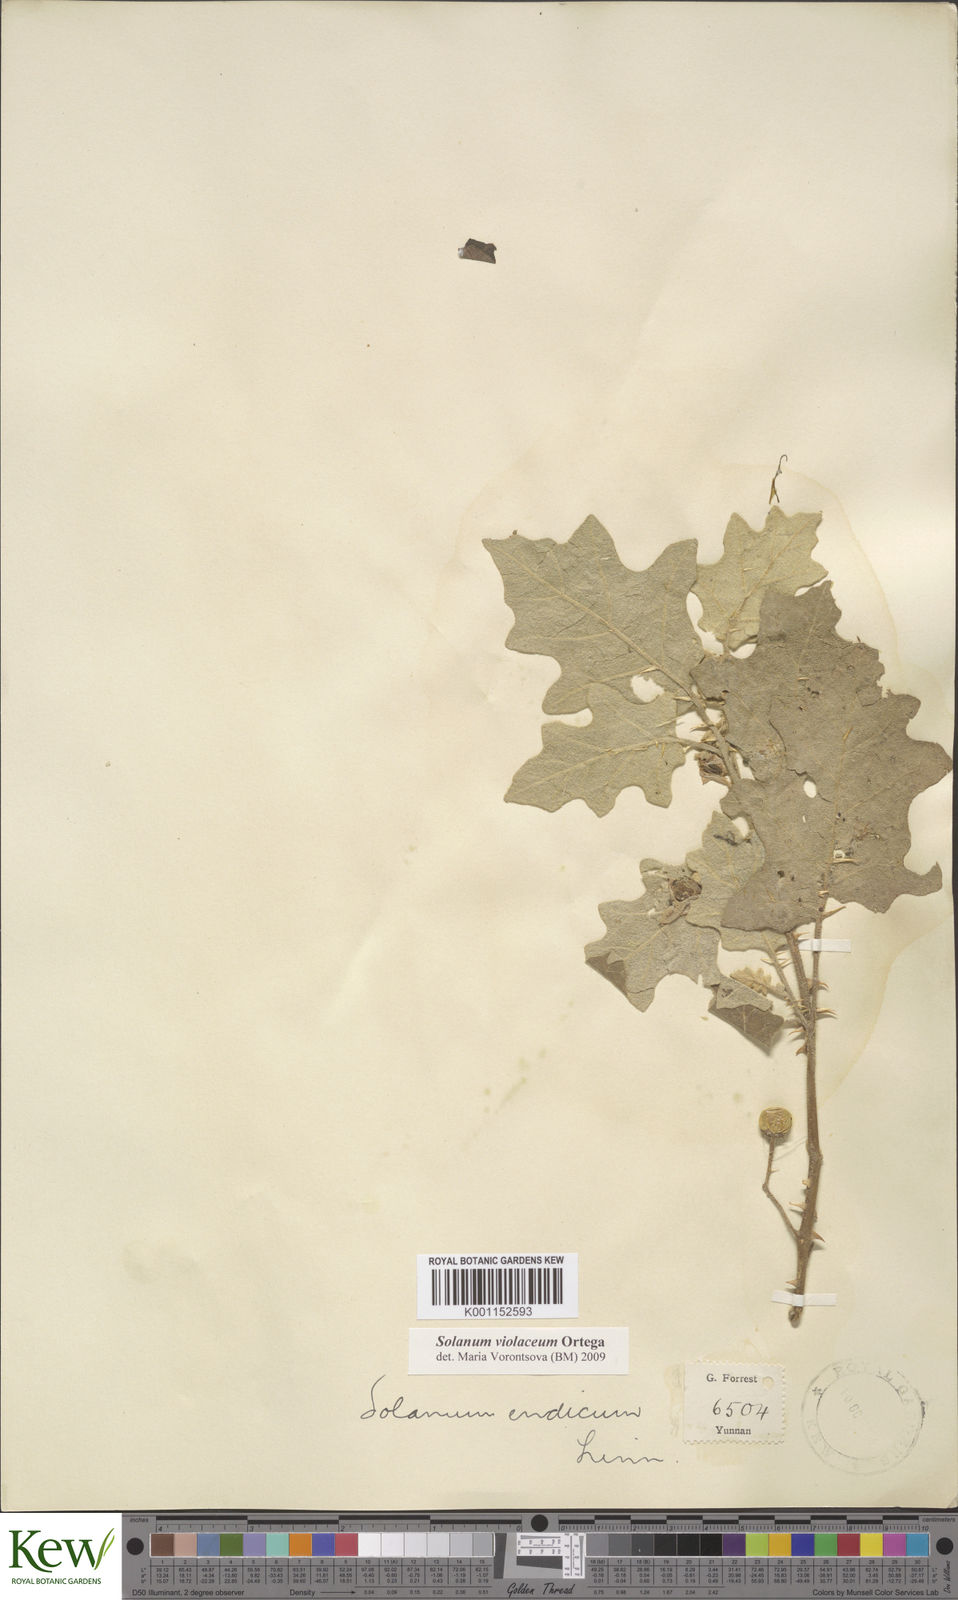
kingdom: Plantae
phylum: Tracheophyta
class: Magnoliopsida
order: Solanales
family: Solanaceae
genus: Solanum
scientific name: Solanum violaceum
